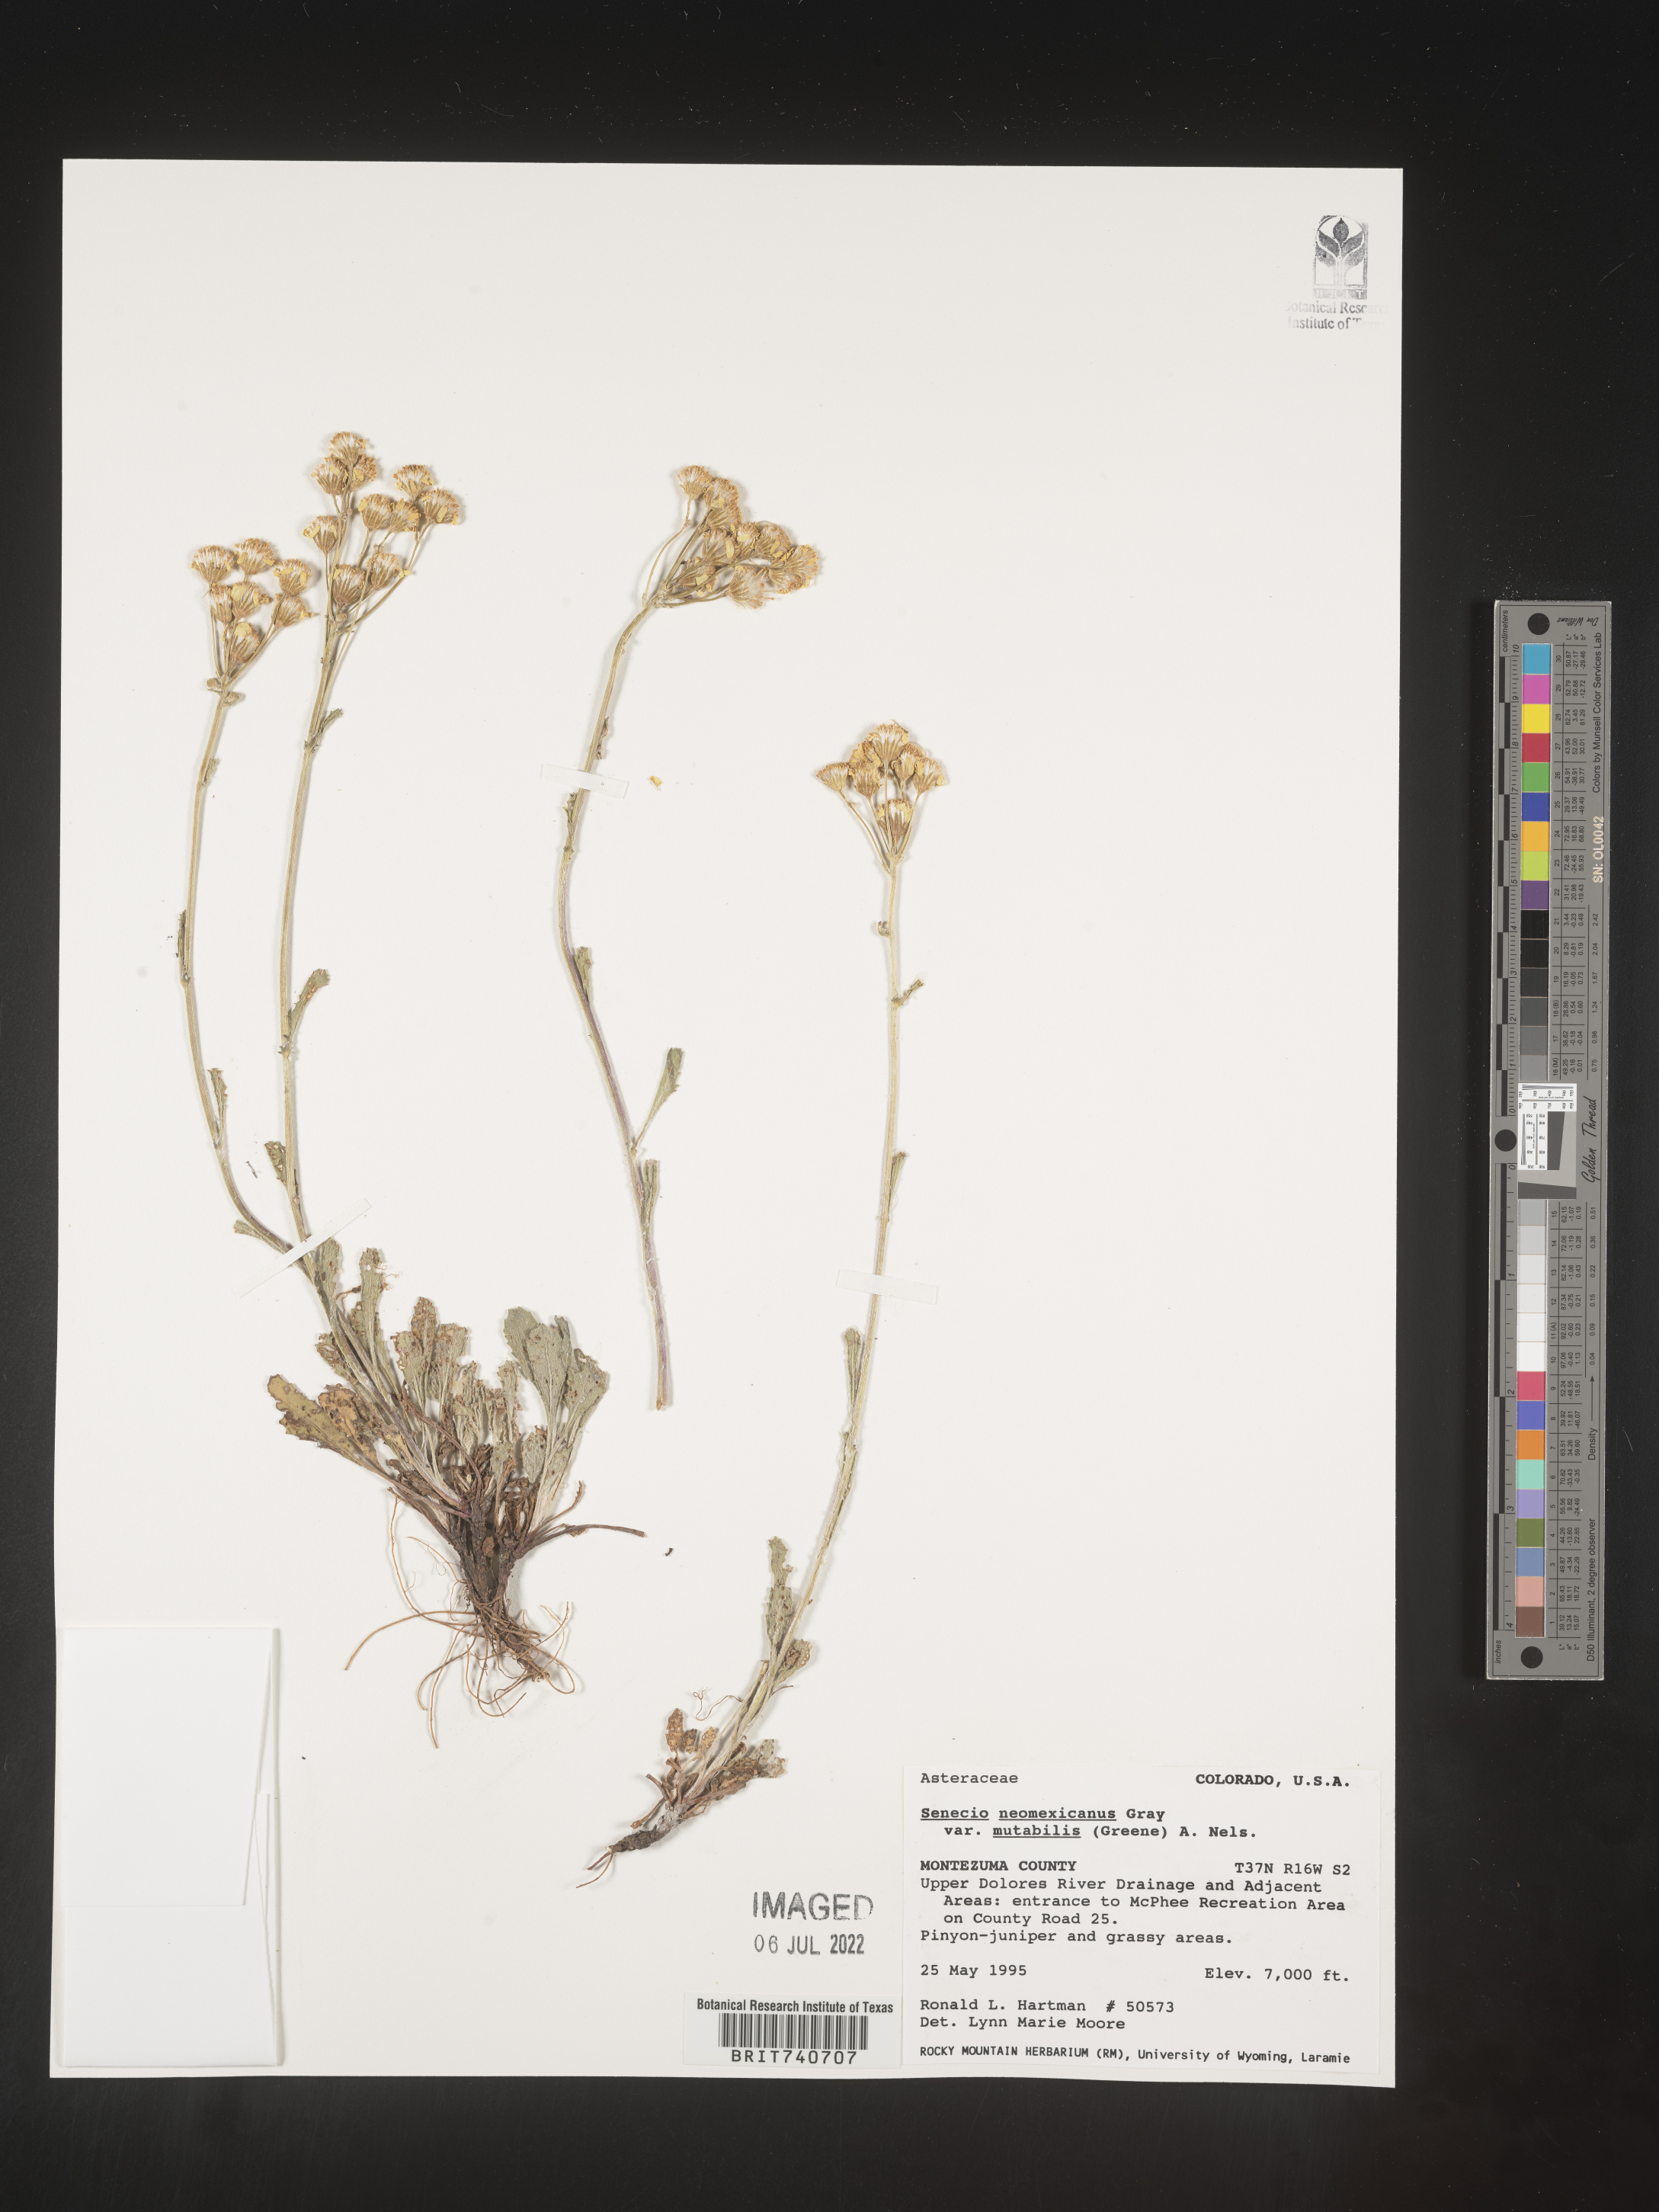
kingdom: Plantae
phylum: Tracheophyta
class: Magnoliopsida
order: Asterales
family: Asteraceae
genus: Senecio
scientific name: Senecio
